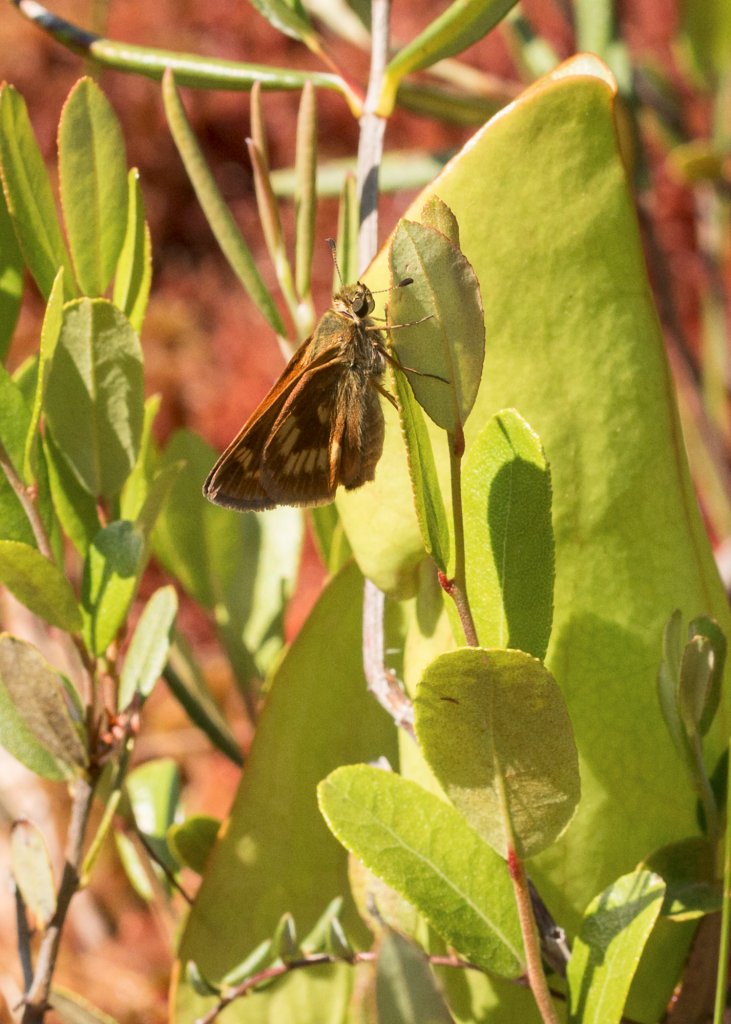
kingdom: Animalia
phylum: Arthropoda
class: Insecta
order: Lepidoptera
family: Hesperiidae
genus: Polites
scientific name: Polites
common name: Long Dash Skipper
